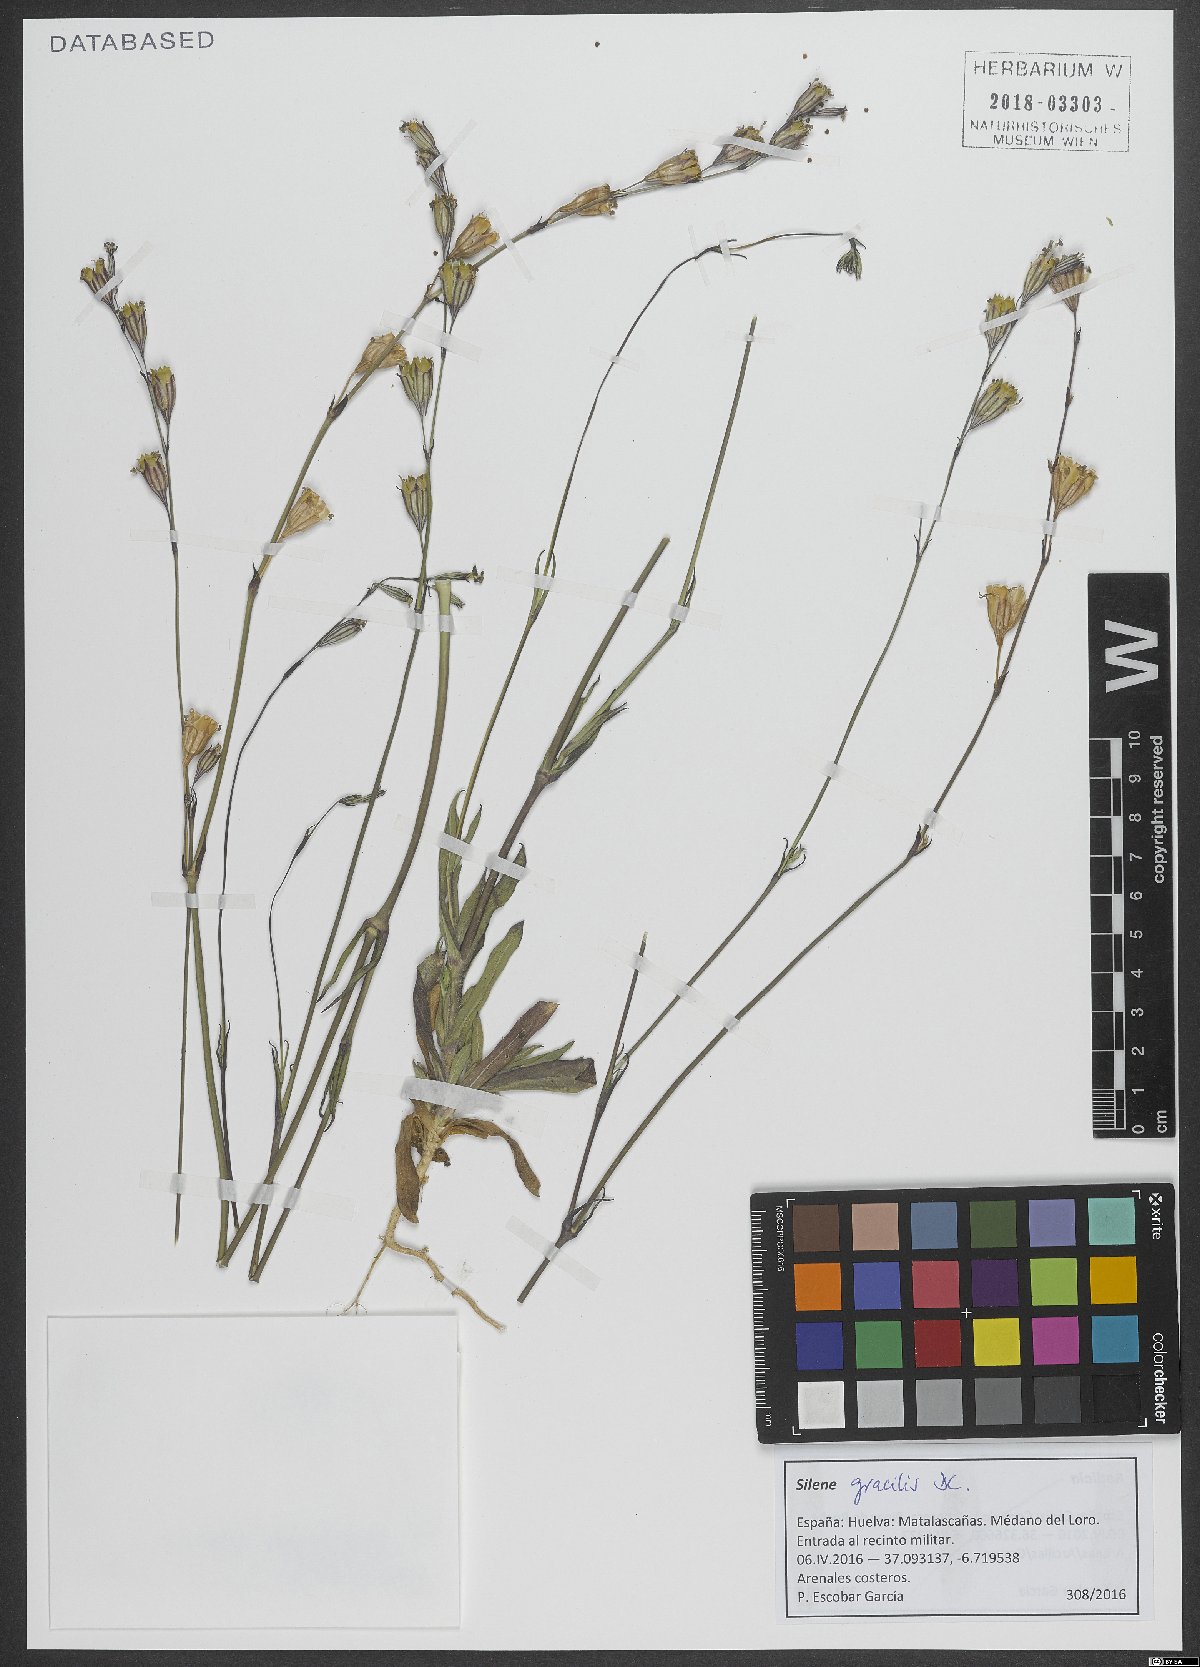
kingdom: Plantae
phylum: Tracheophyta
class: Magnoliopsida
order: Caryophyllales
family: Caryophyllaceae
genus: Silene
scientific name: Silene gracilis
